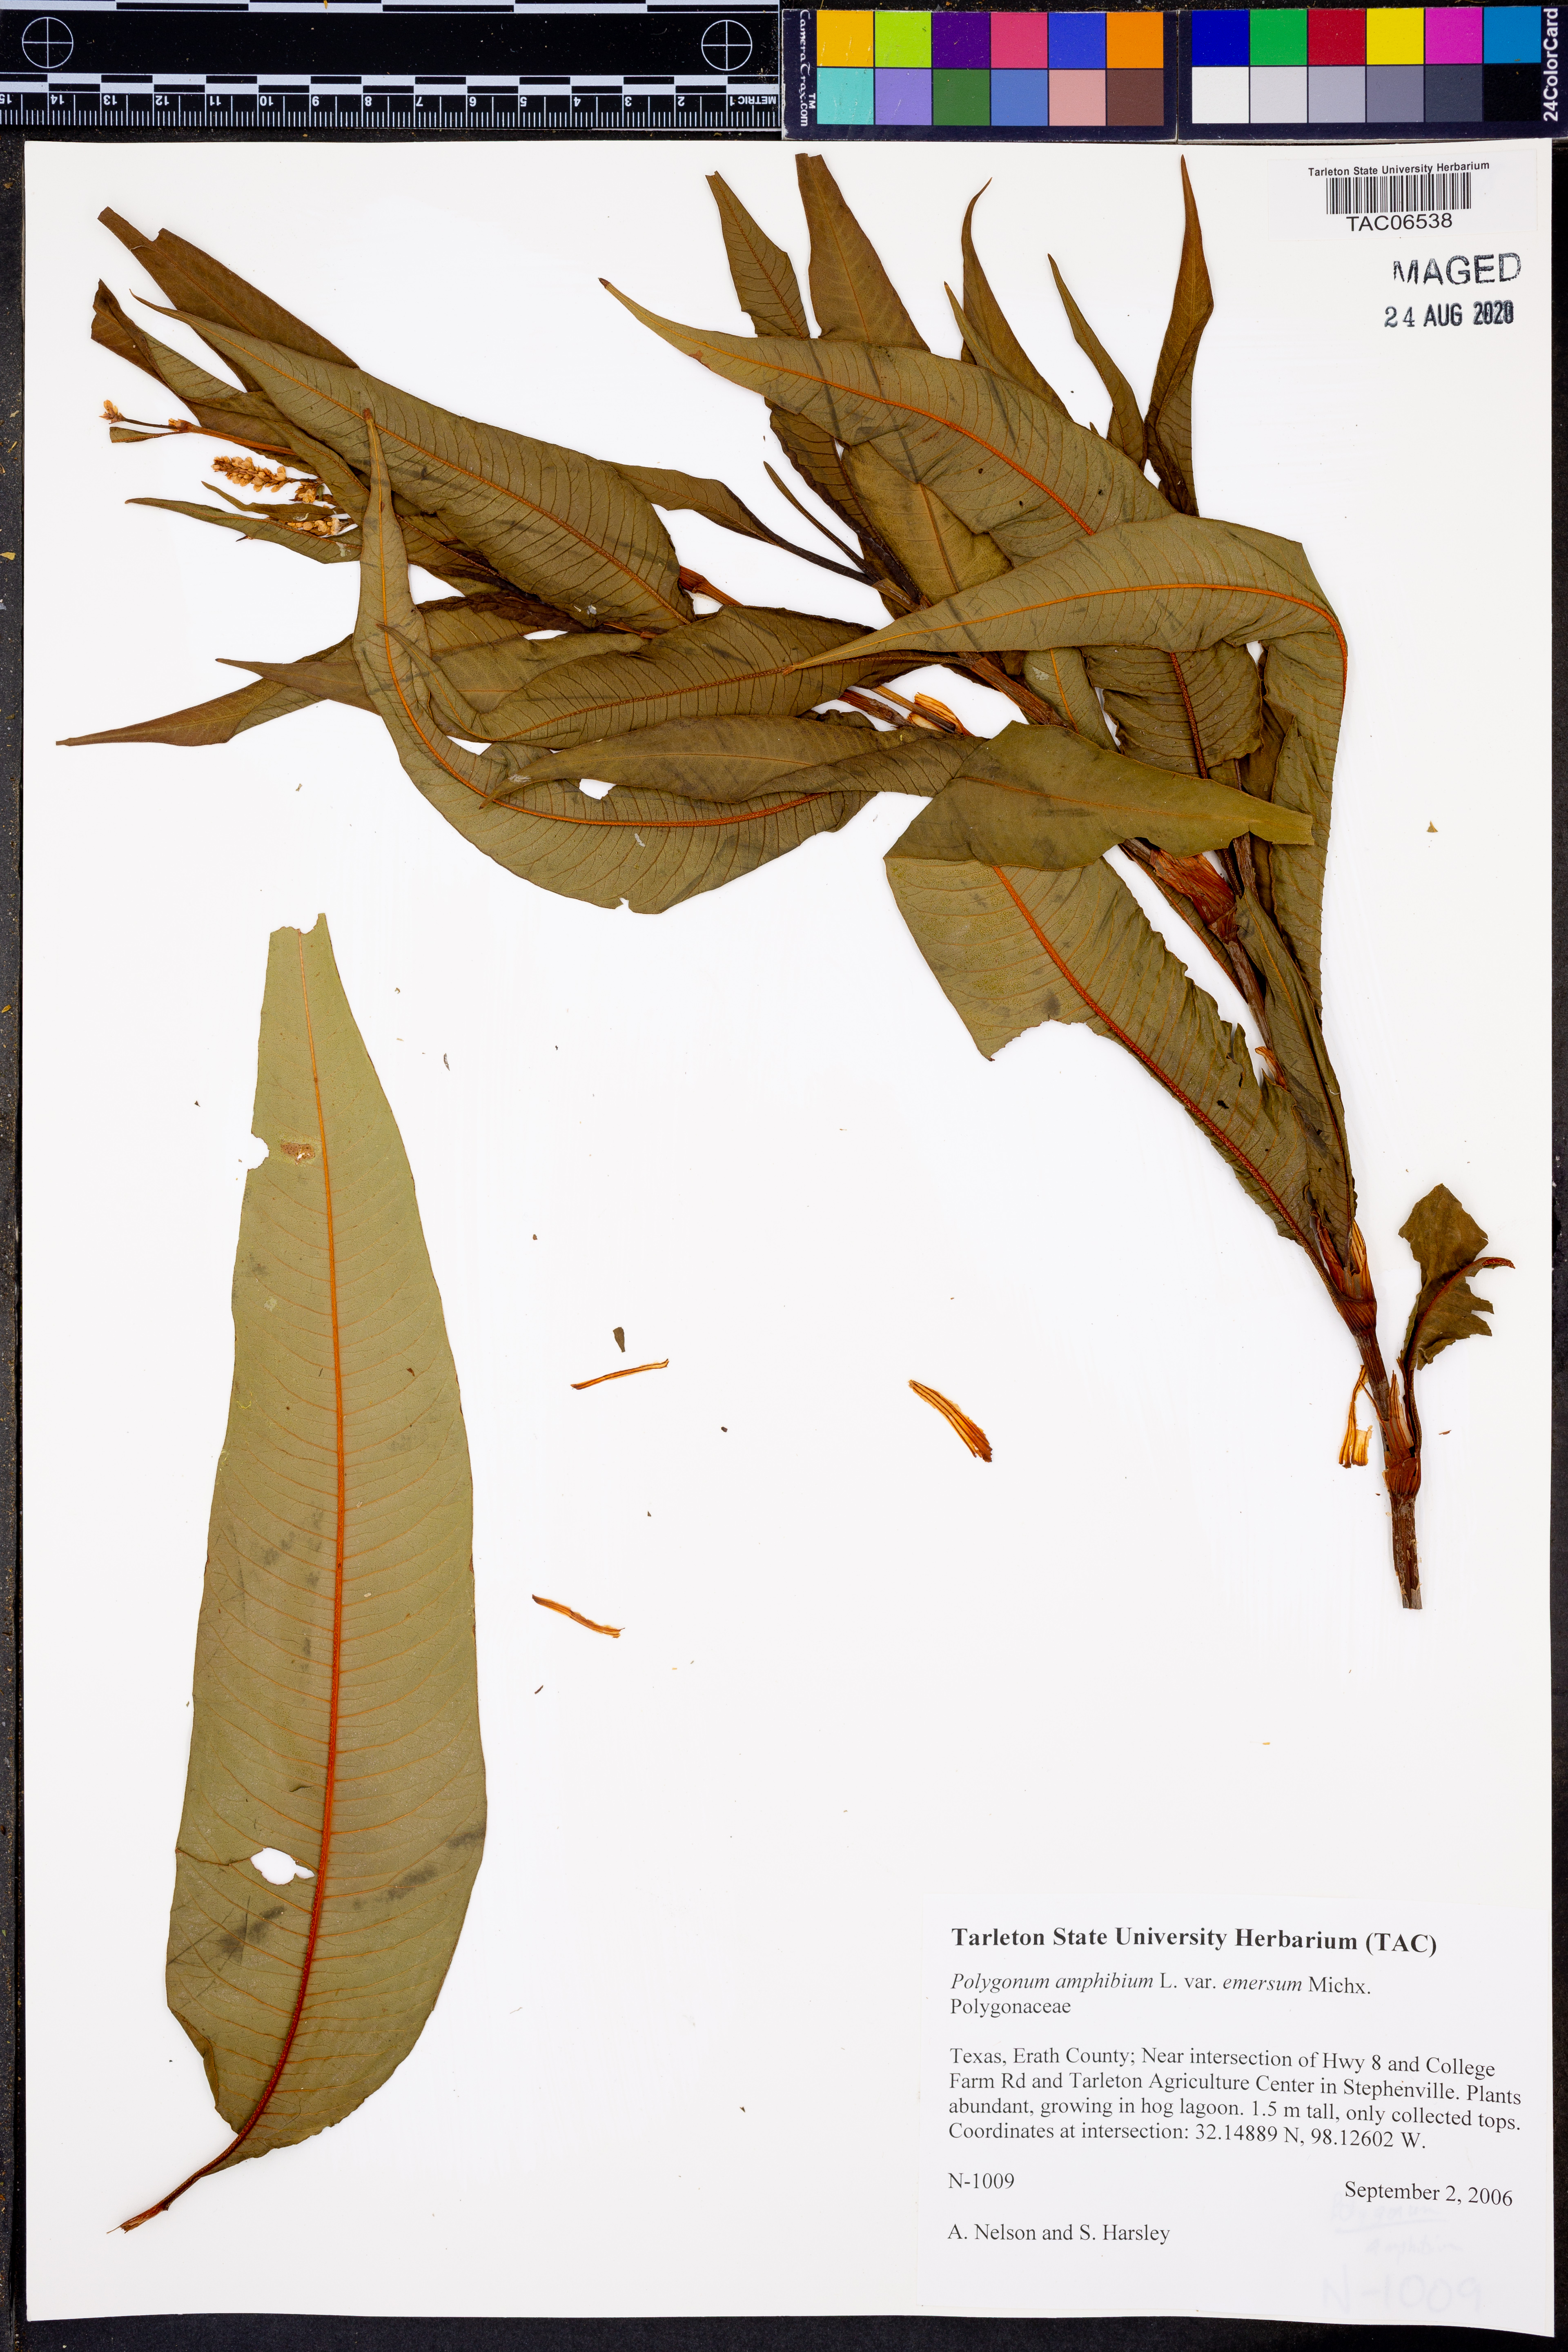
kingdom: Plantae
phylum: Tracheophyta
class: Magnoliopsida
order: Caryophyllales
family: Polygonaceae
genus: Persicaria
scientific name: Persicaria amphibia
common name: Amphibious bistort
